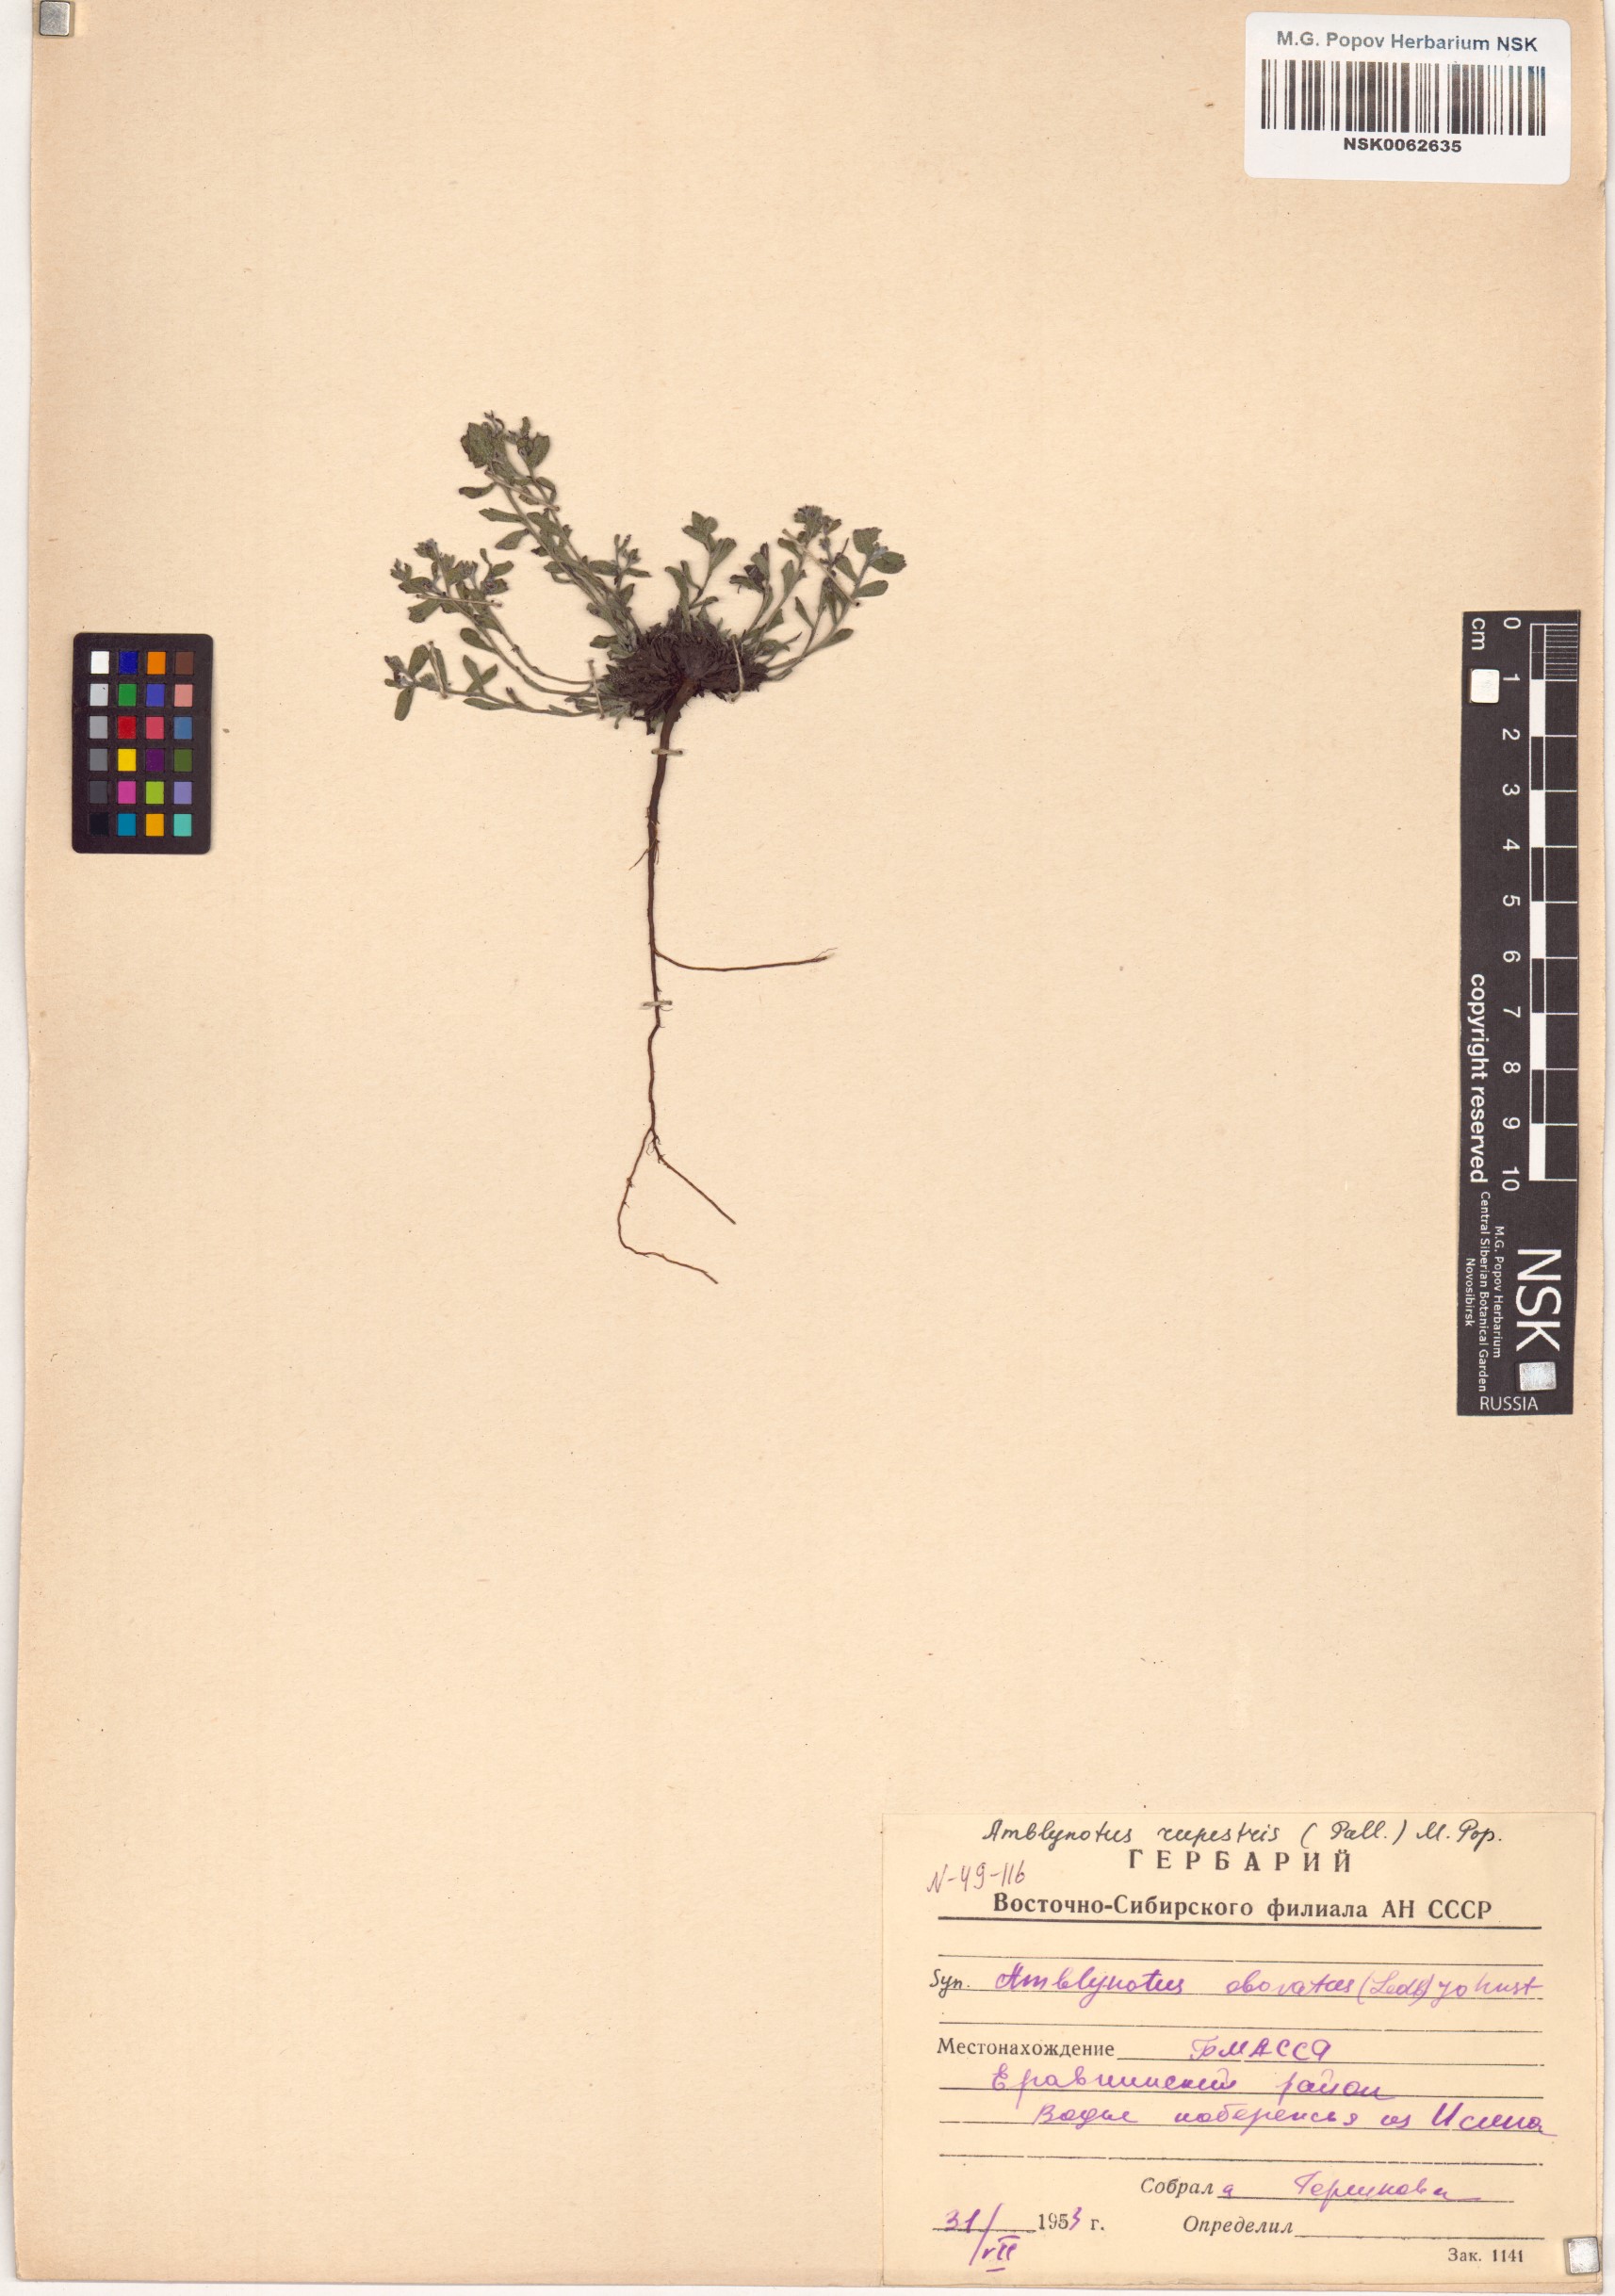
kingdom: Plantae
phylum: Tracheophyta
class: Magnoliopsida
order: Boraginales
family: Boraginaceae
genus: Eritrichium
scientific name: Eritrichium rupestre
